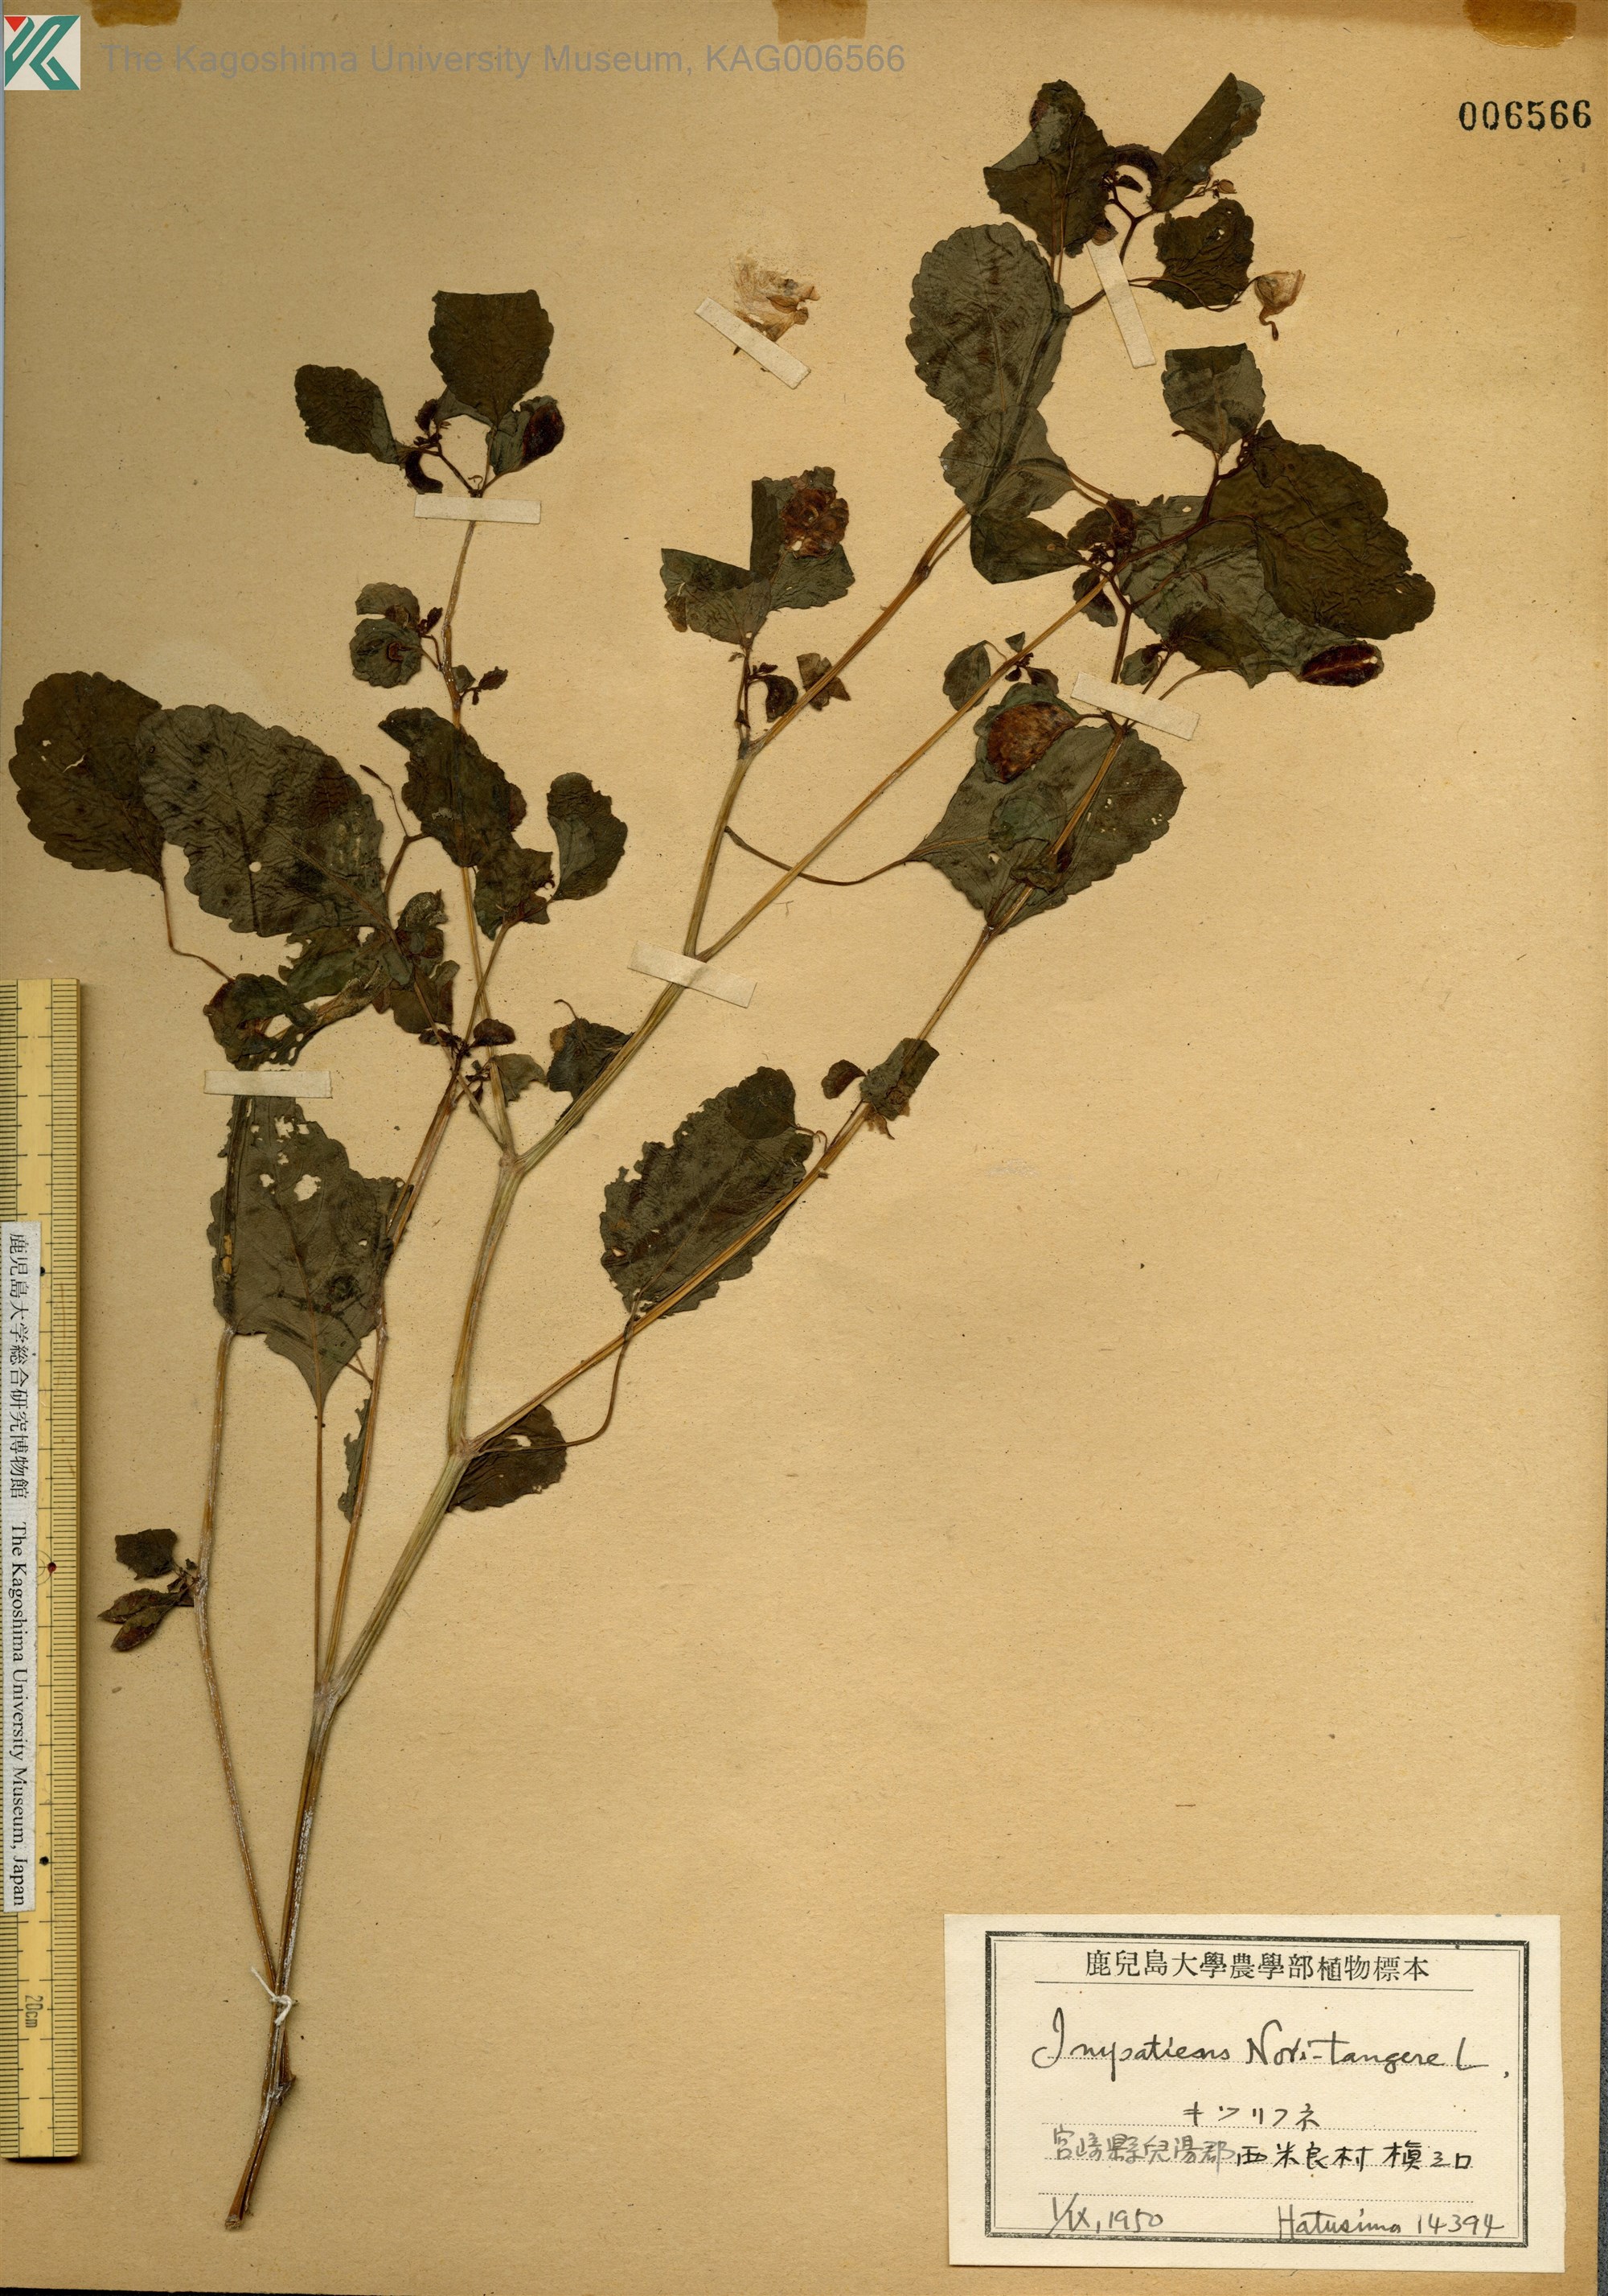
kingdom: Plantae
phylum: Tracheophyta
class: Magnoliopsida
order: Ericales
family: Balsaminaceae
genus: Impatiens
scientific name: Impatiens noli-tangere
